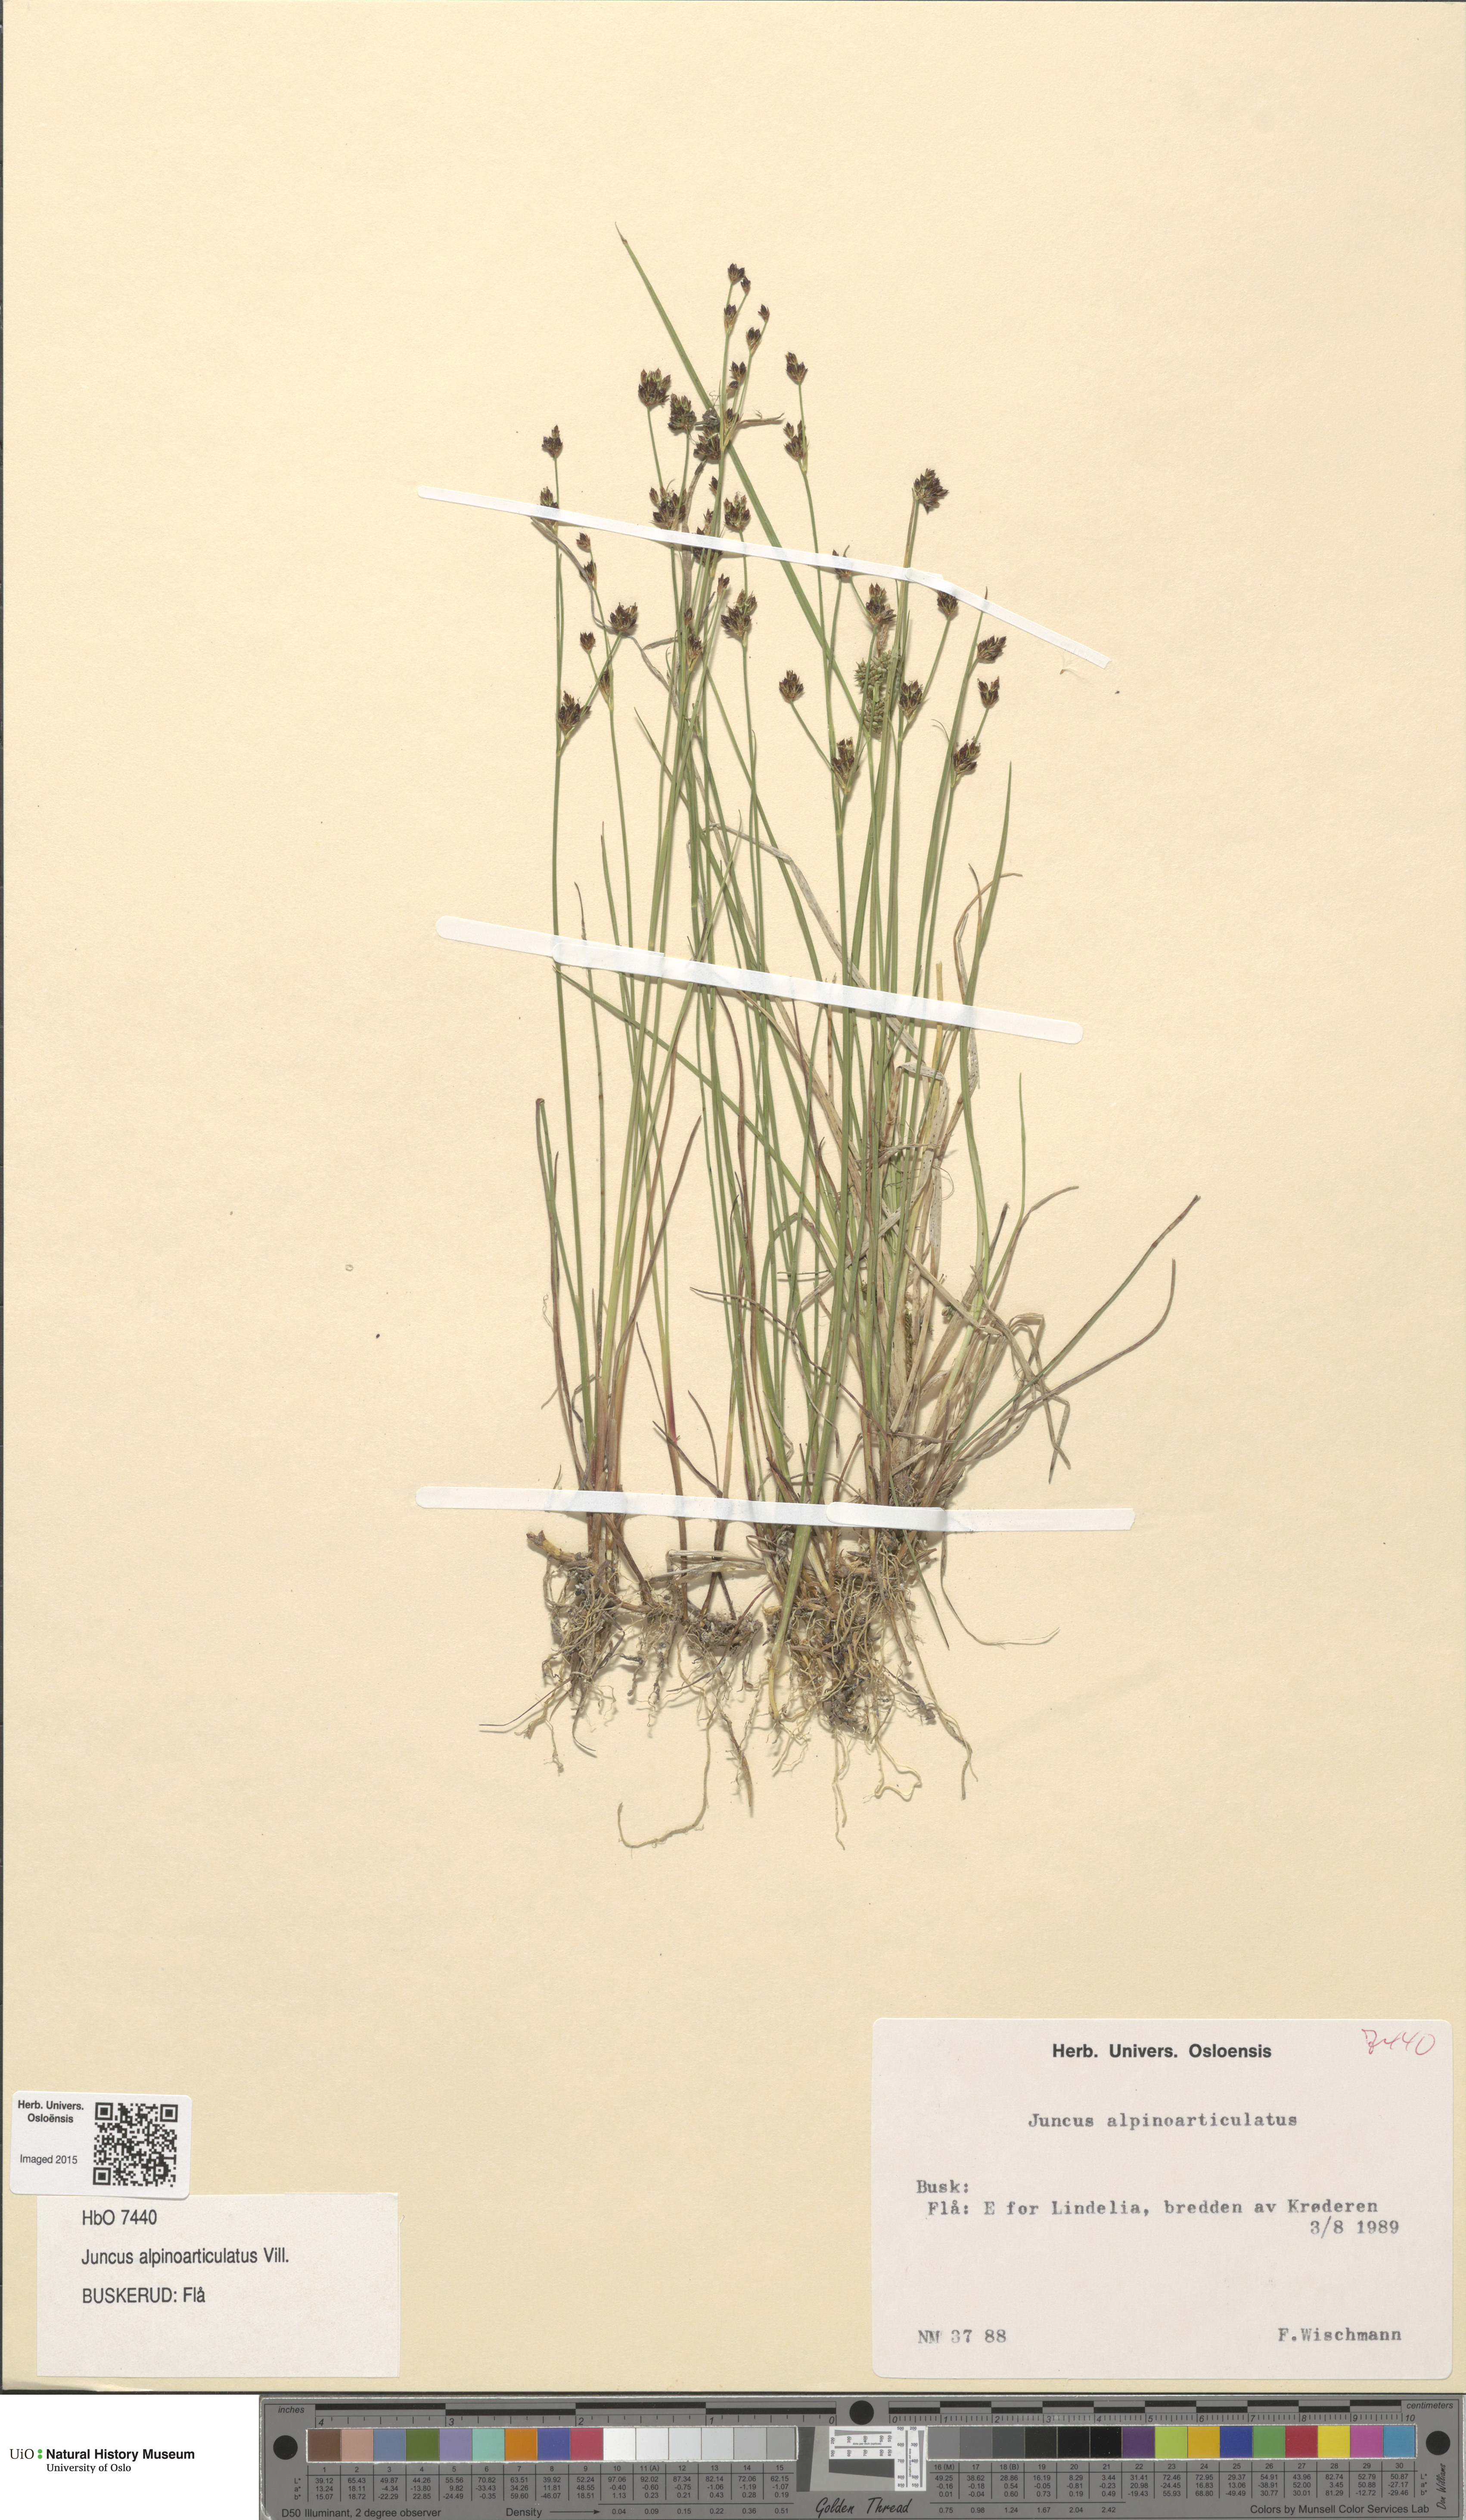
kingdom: Plantae
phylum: Tracheophyta
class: Liliopsida
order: Poales
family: Juncaceae
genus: Juncus
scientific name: Juncus alpinoarticulatus
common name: Alpine rush
